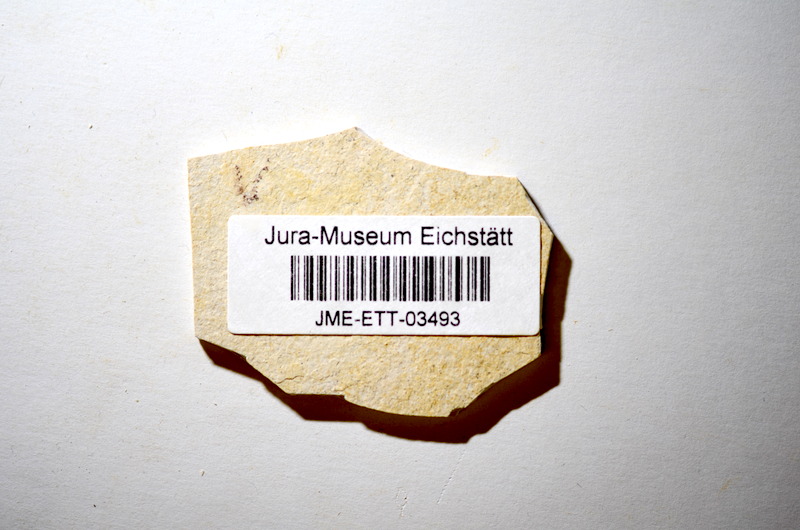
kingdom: Animalia
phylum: Chordata
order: Salmoniformes
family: Orthogonikleithridae
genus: Orthogonikleithrus
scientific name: Orthogonikleithrus hoelli
